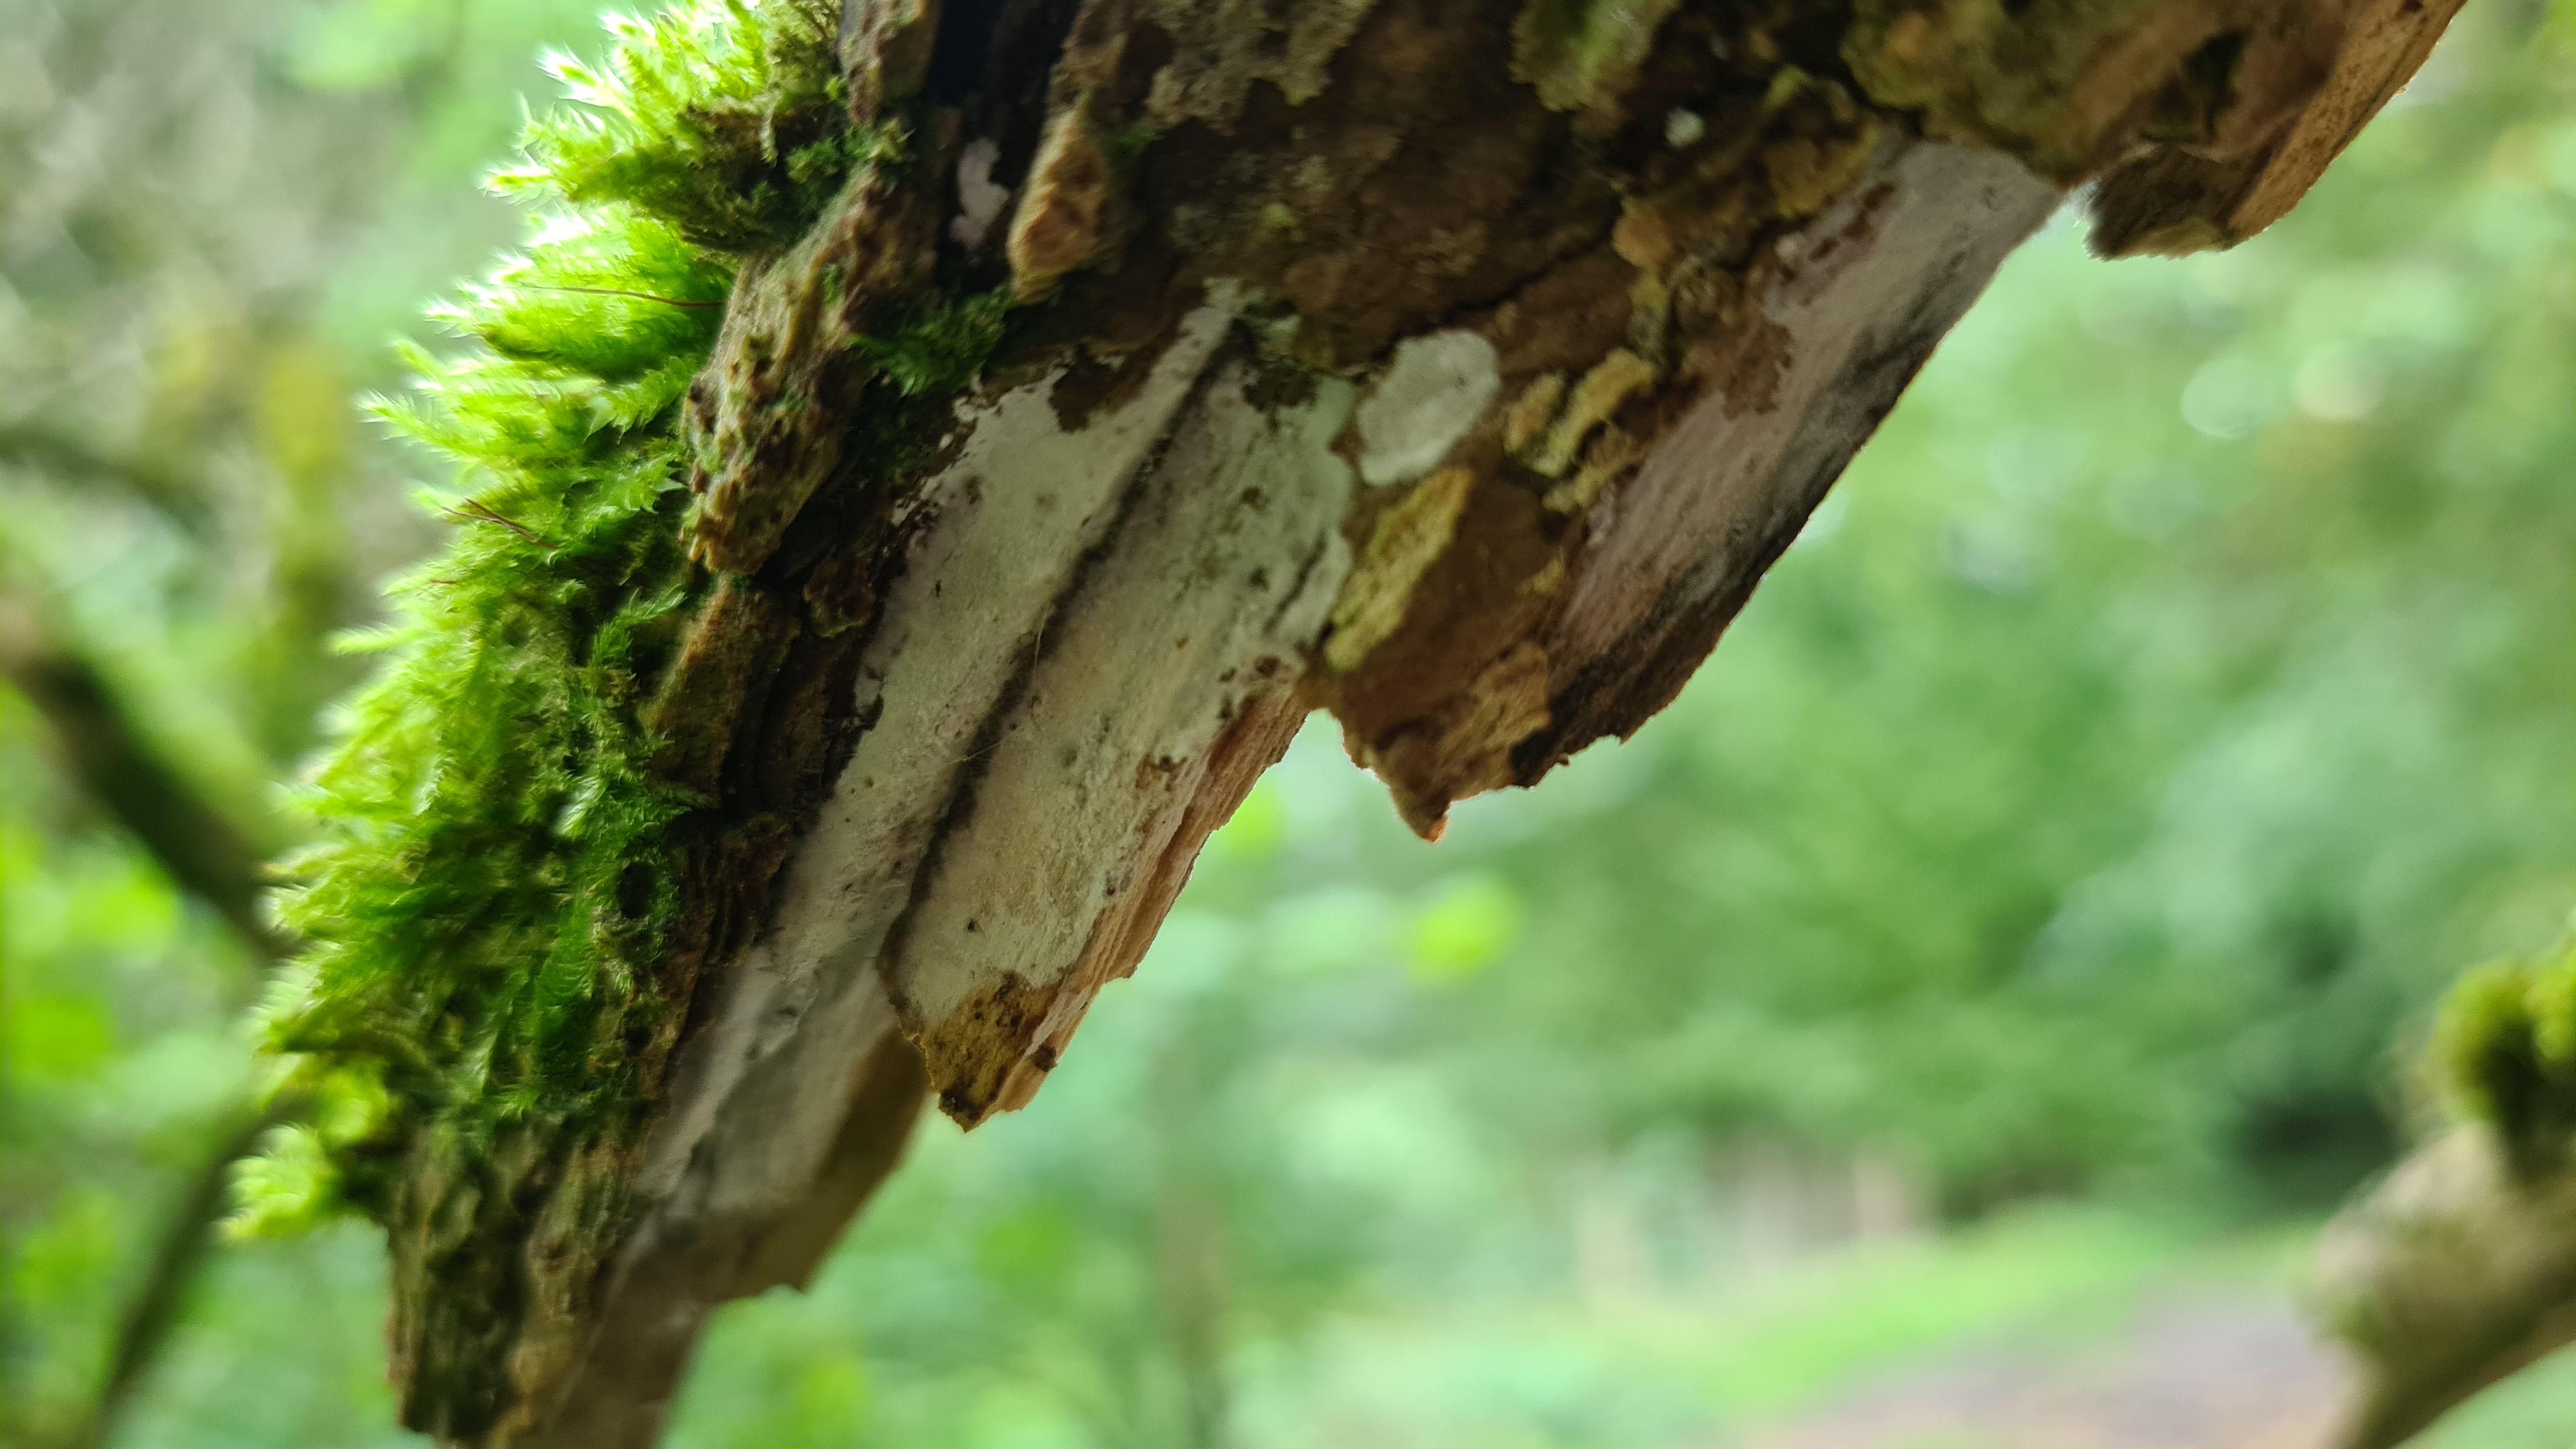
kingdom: Fungi
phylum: Basidiomycota
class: Agaricomycetes
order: Corticiales
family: Corticiaceae
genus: Lyomyces
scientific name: Lyomyces sambuci
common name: almindelig hyldehinde
